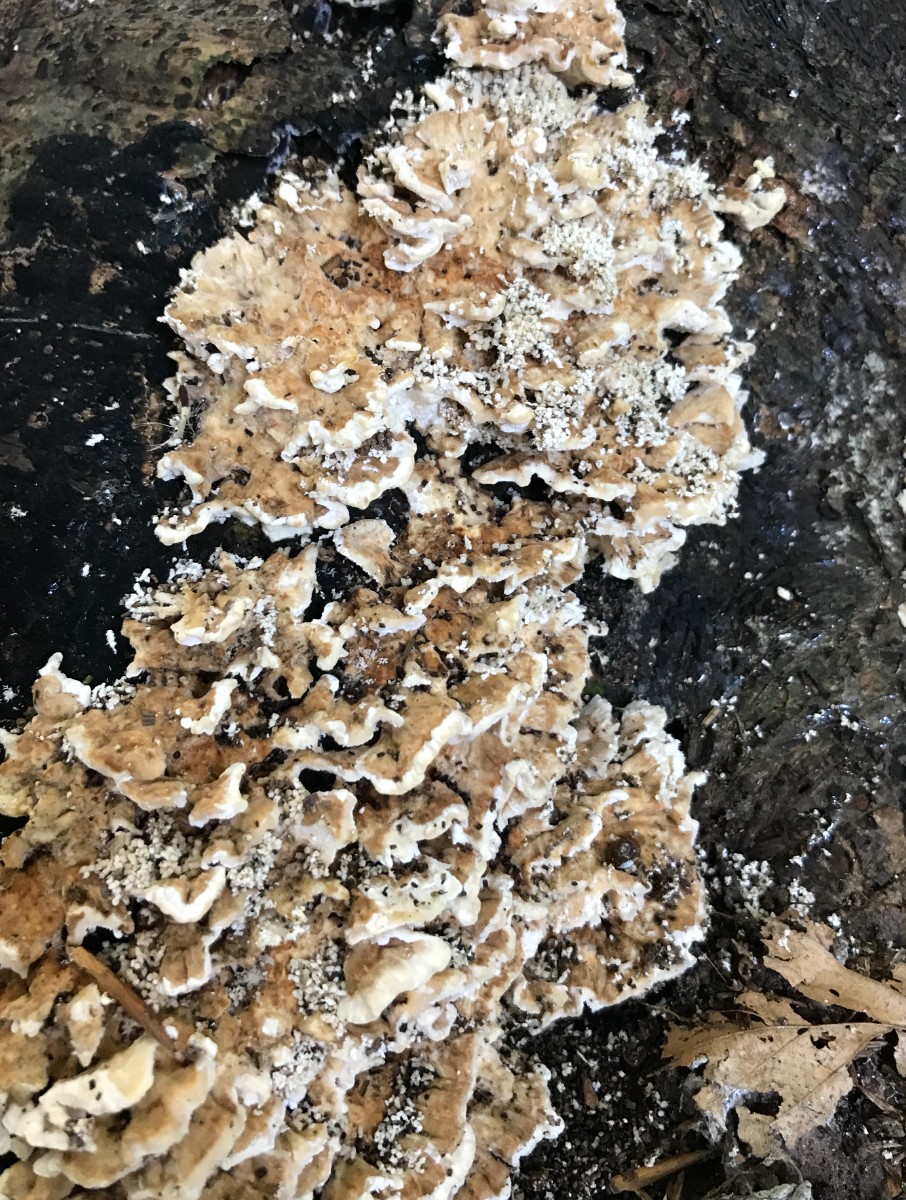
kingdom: Fungi
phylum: Basidiomycota
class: Agaricomycetes
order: Polyporales
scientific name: Polyporales
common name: poresvampordenen
